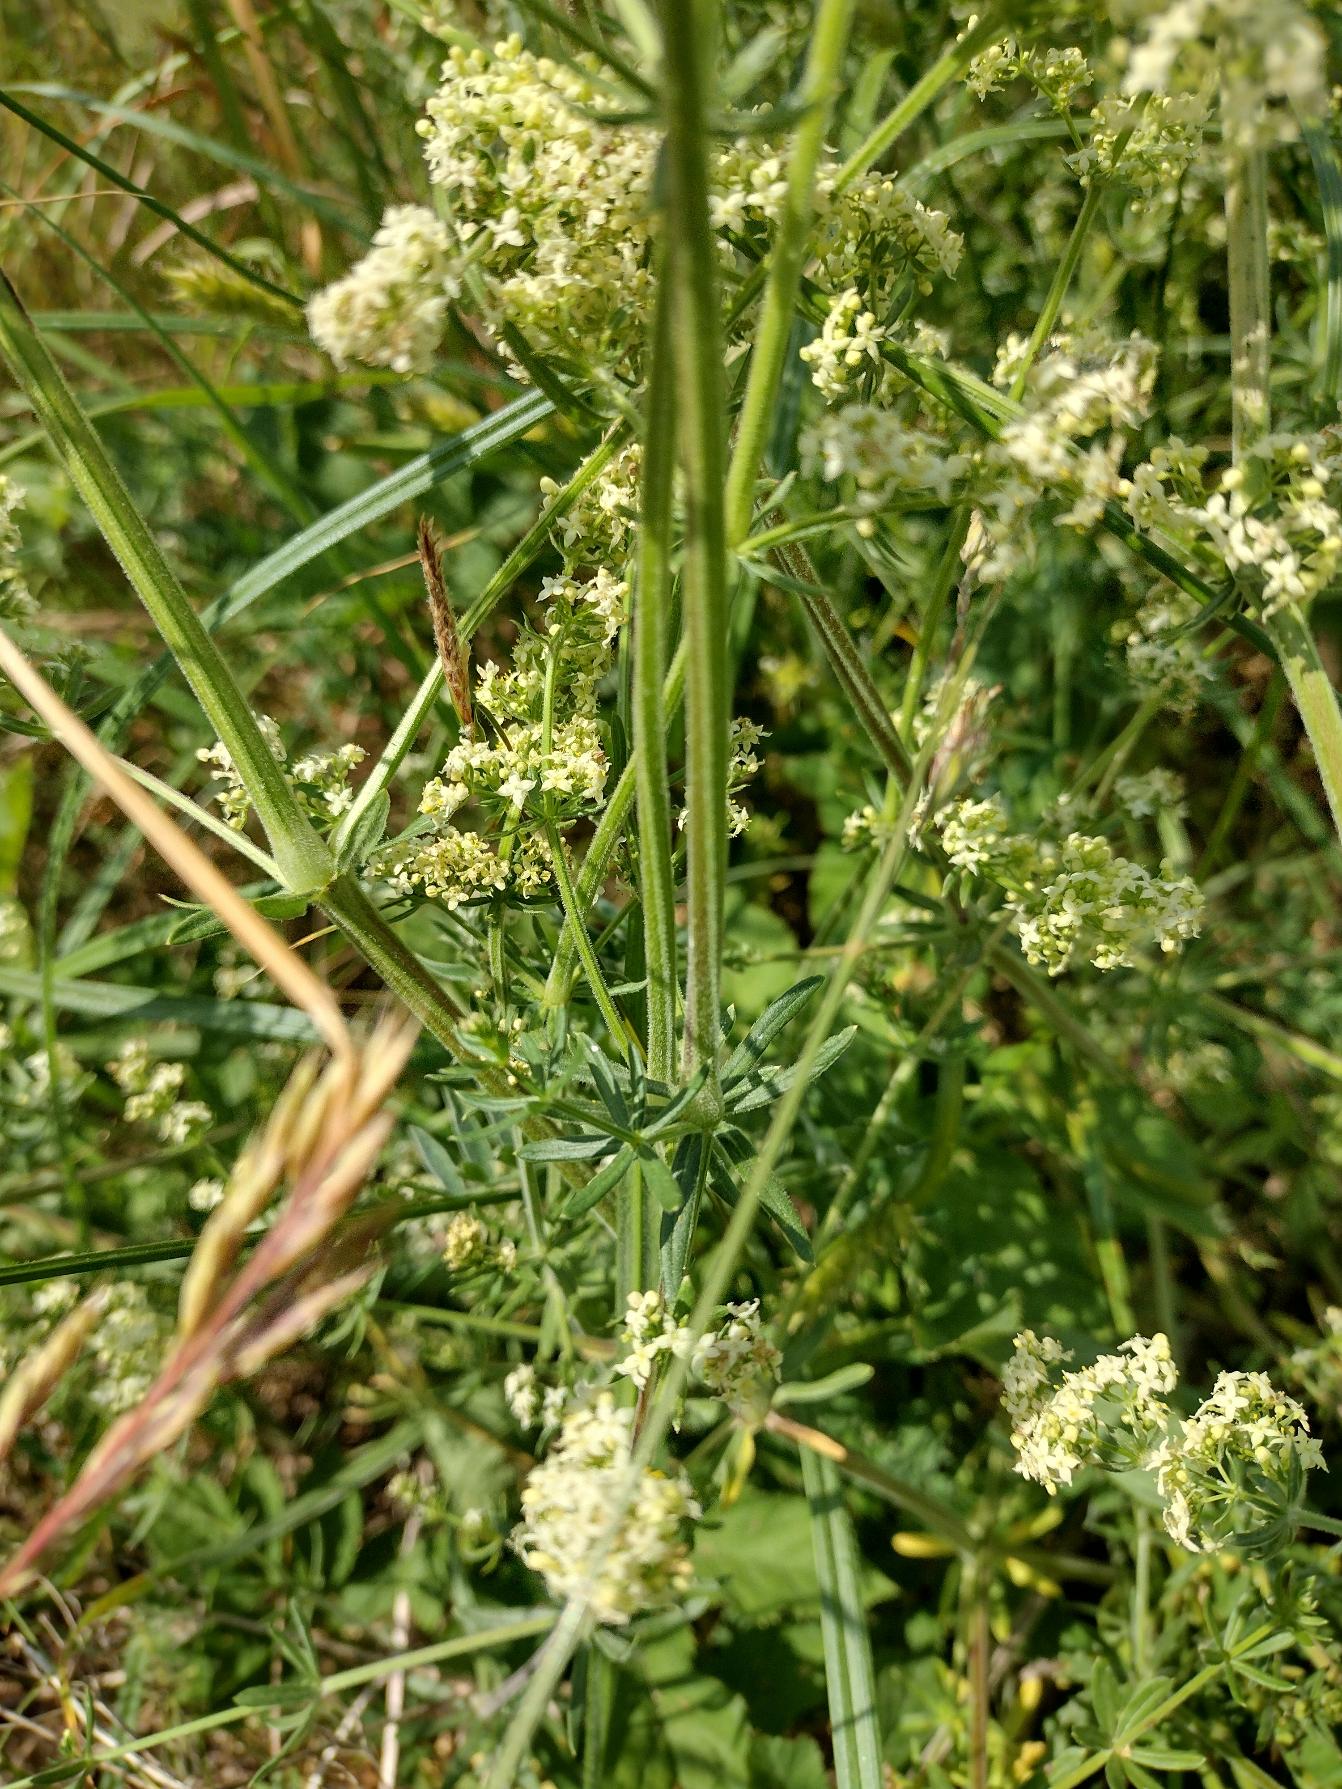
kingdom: Plantae
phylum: Tracheophyta
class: Magnoliopsida
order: Gentianales
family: Rubiaceae
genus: Galium
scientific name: Galium mollugo
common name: Hvid snerre
